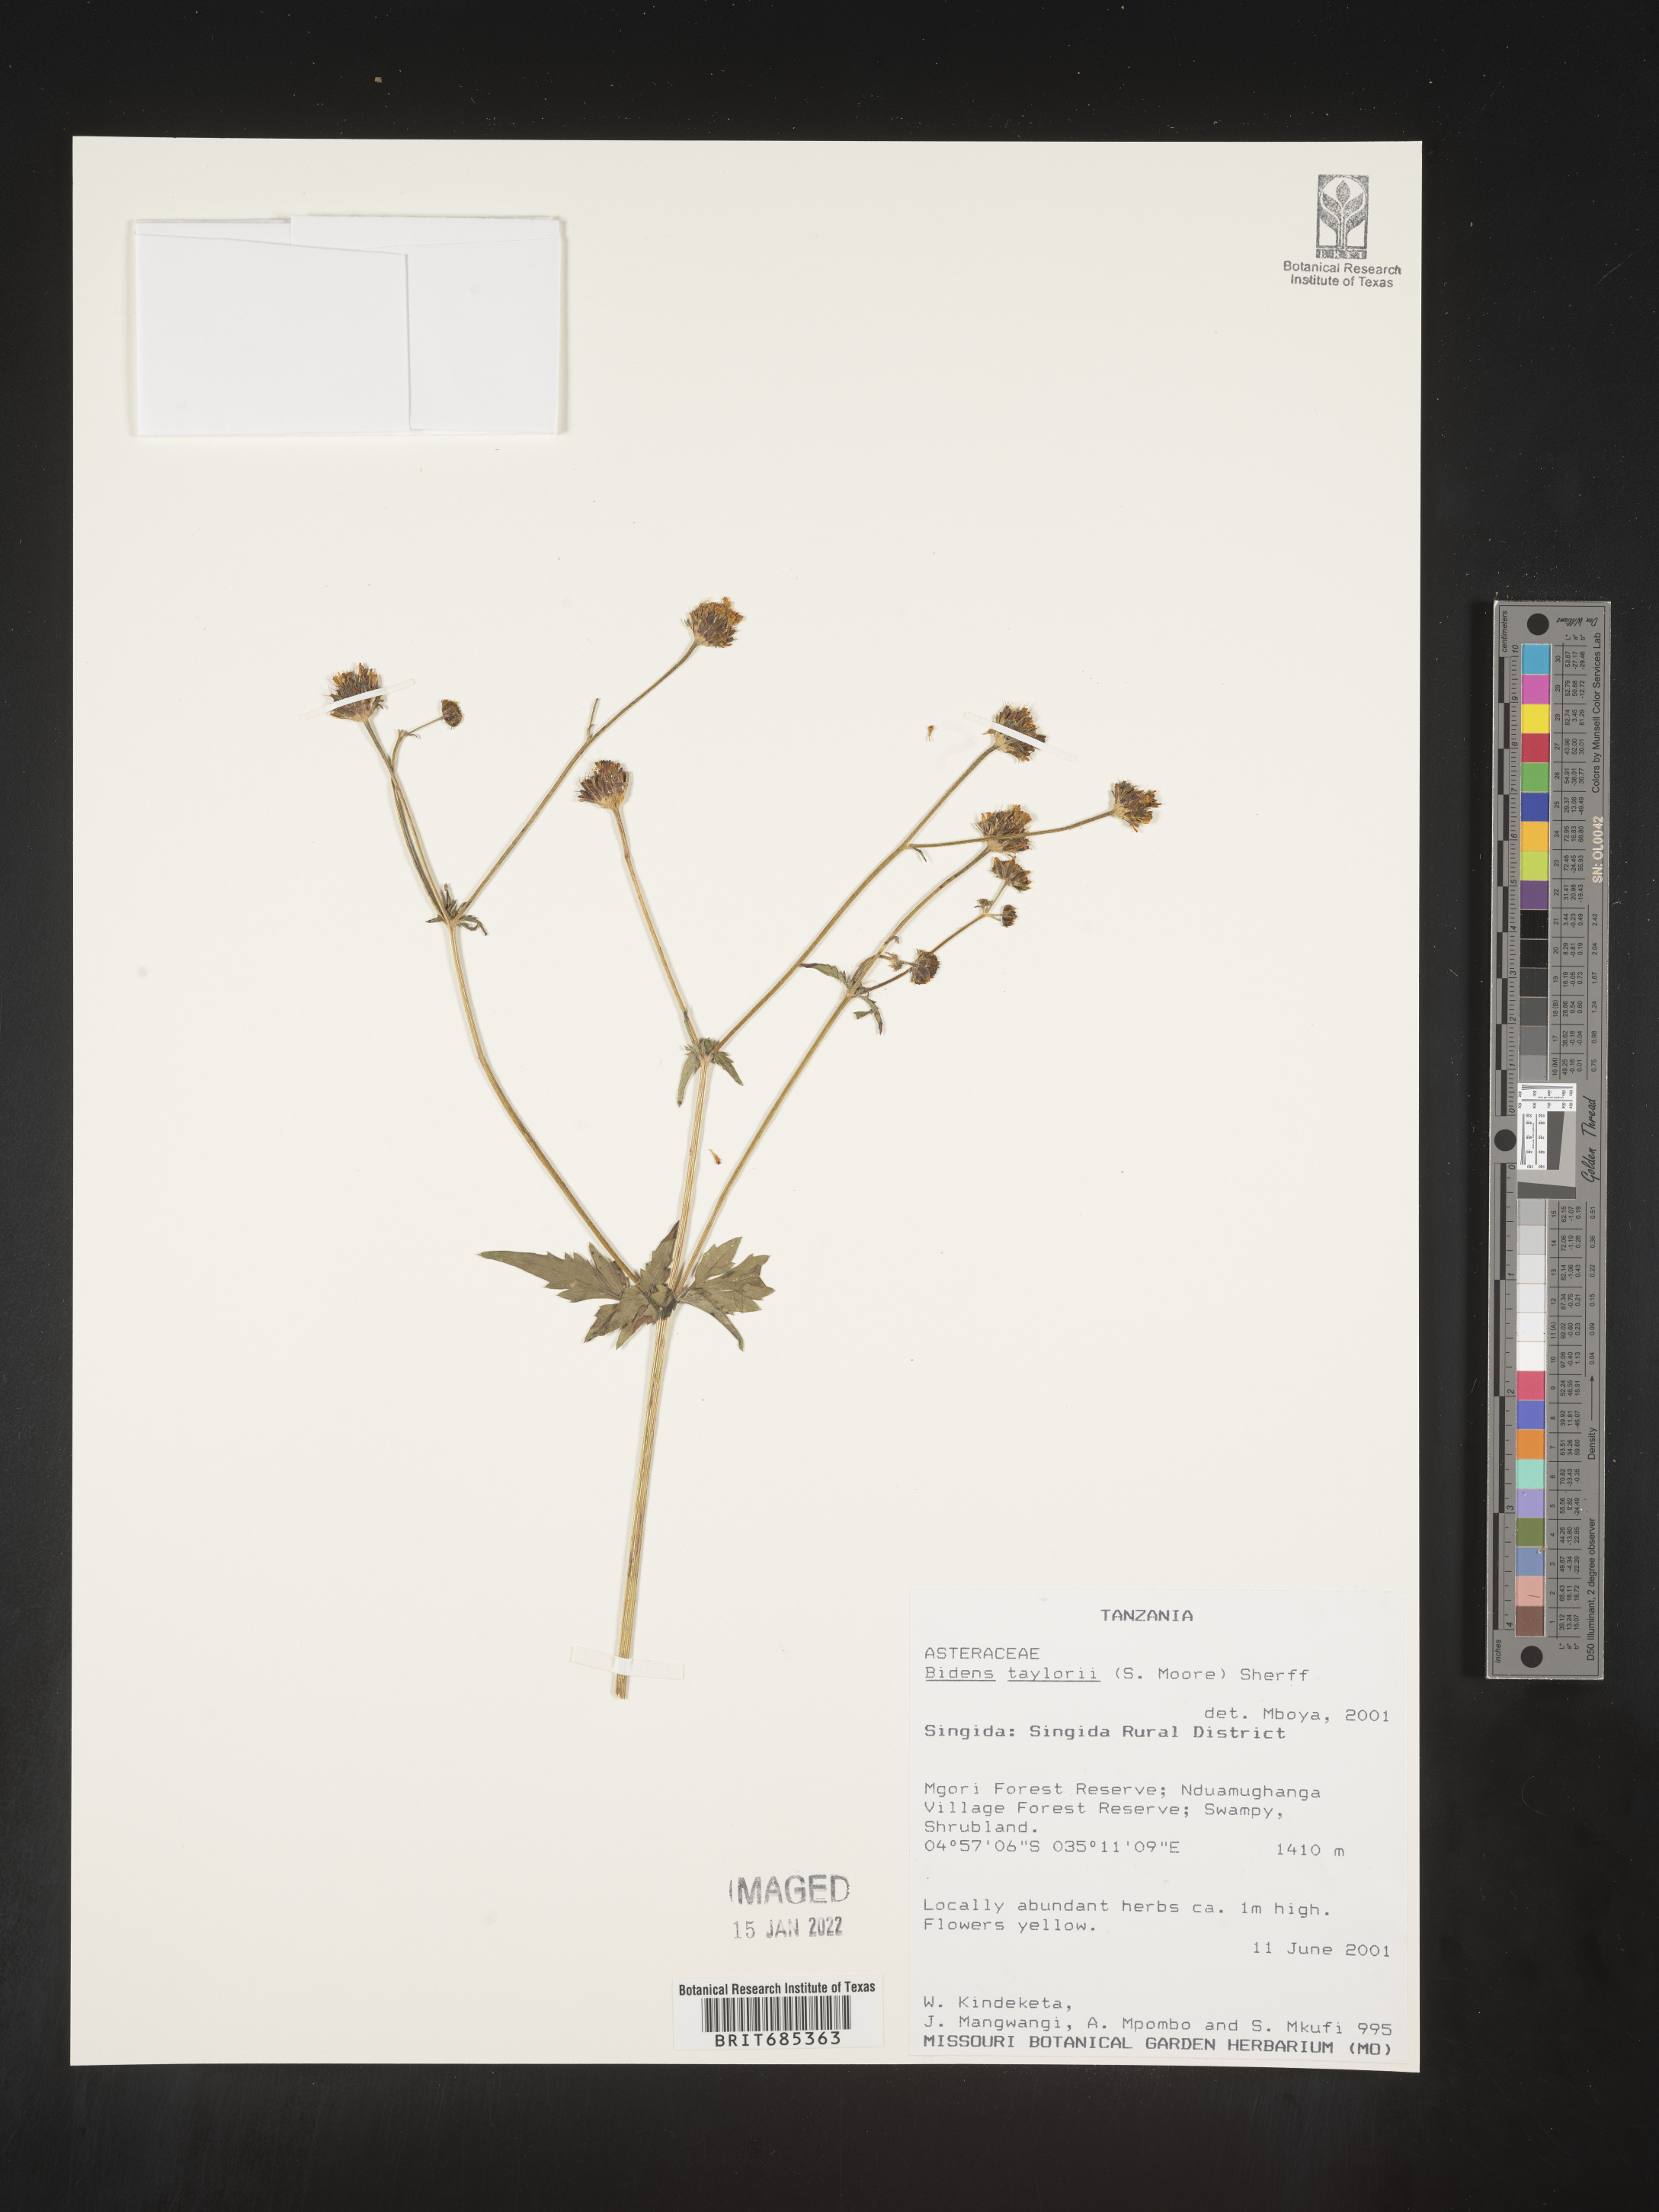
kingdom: Plantae
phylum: Tracheophyta
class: Magnoliopsida
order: Asterales
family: Asteraceae
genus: Bidens
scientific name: Bidens
